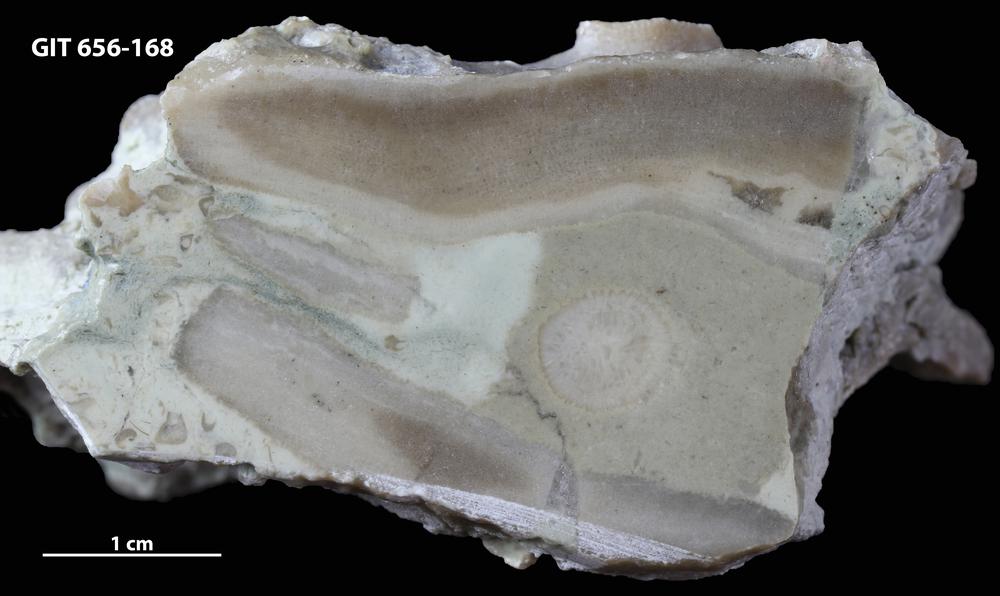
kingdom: Animalia
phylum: Porifera
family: Syringostromellidae
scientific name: Syringostromellidae
